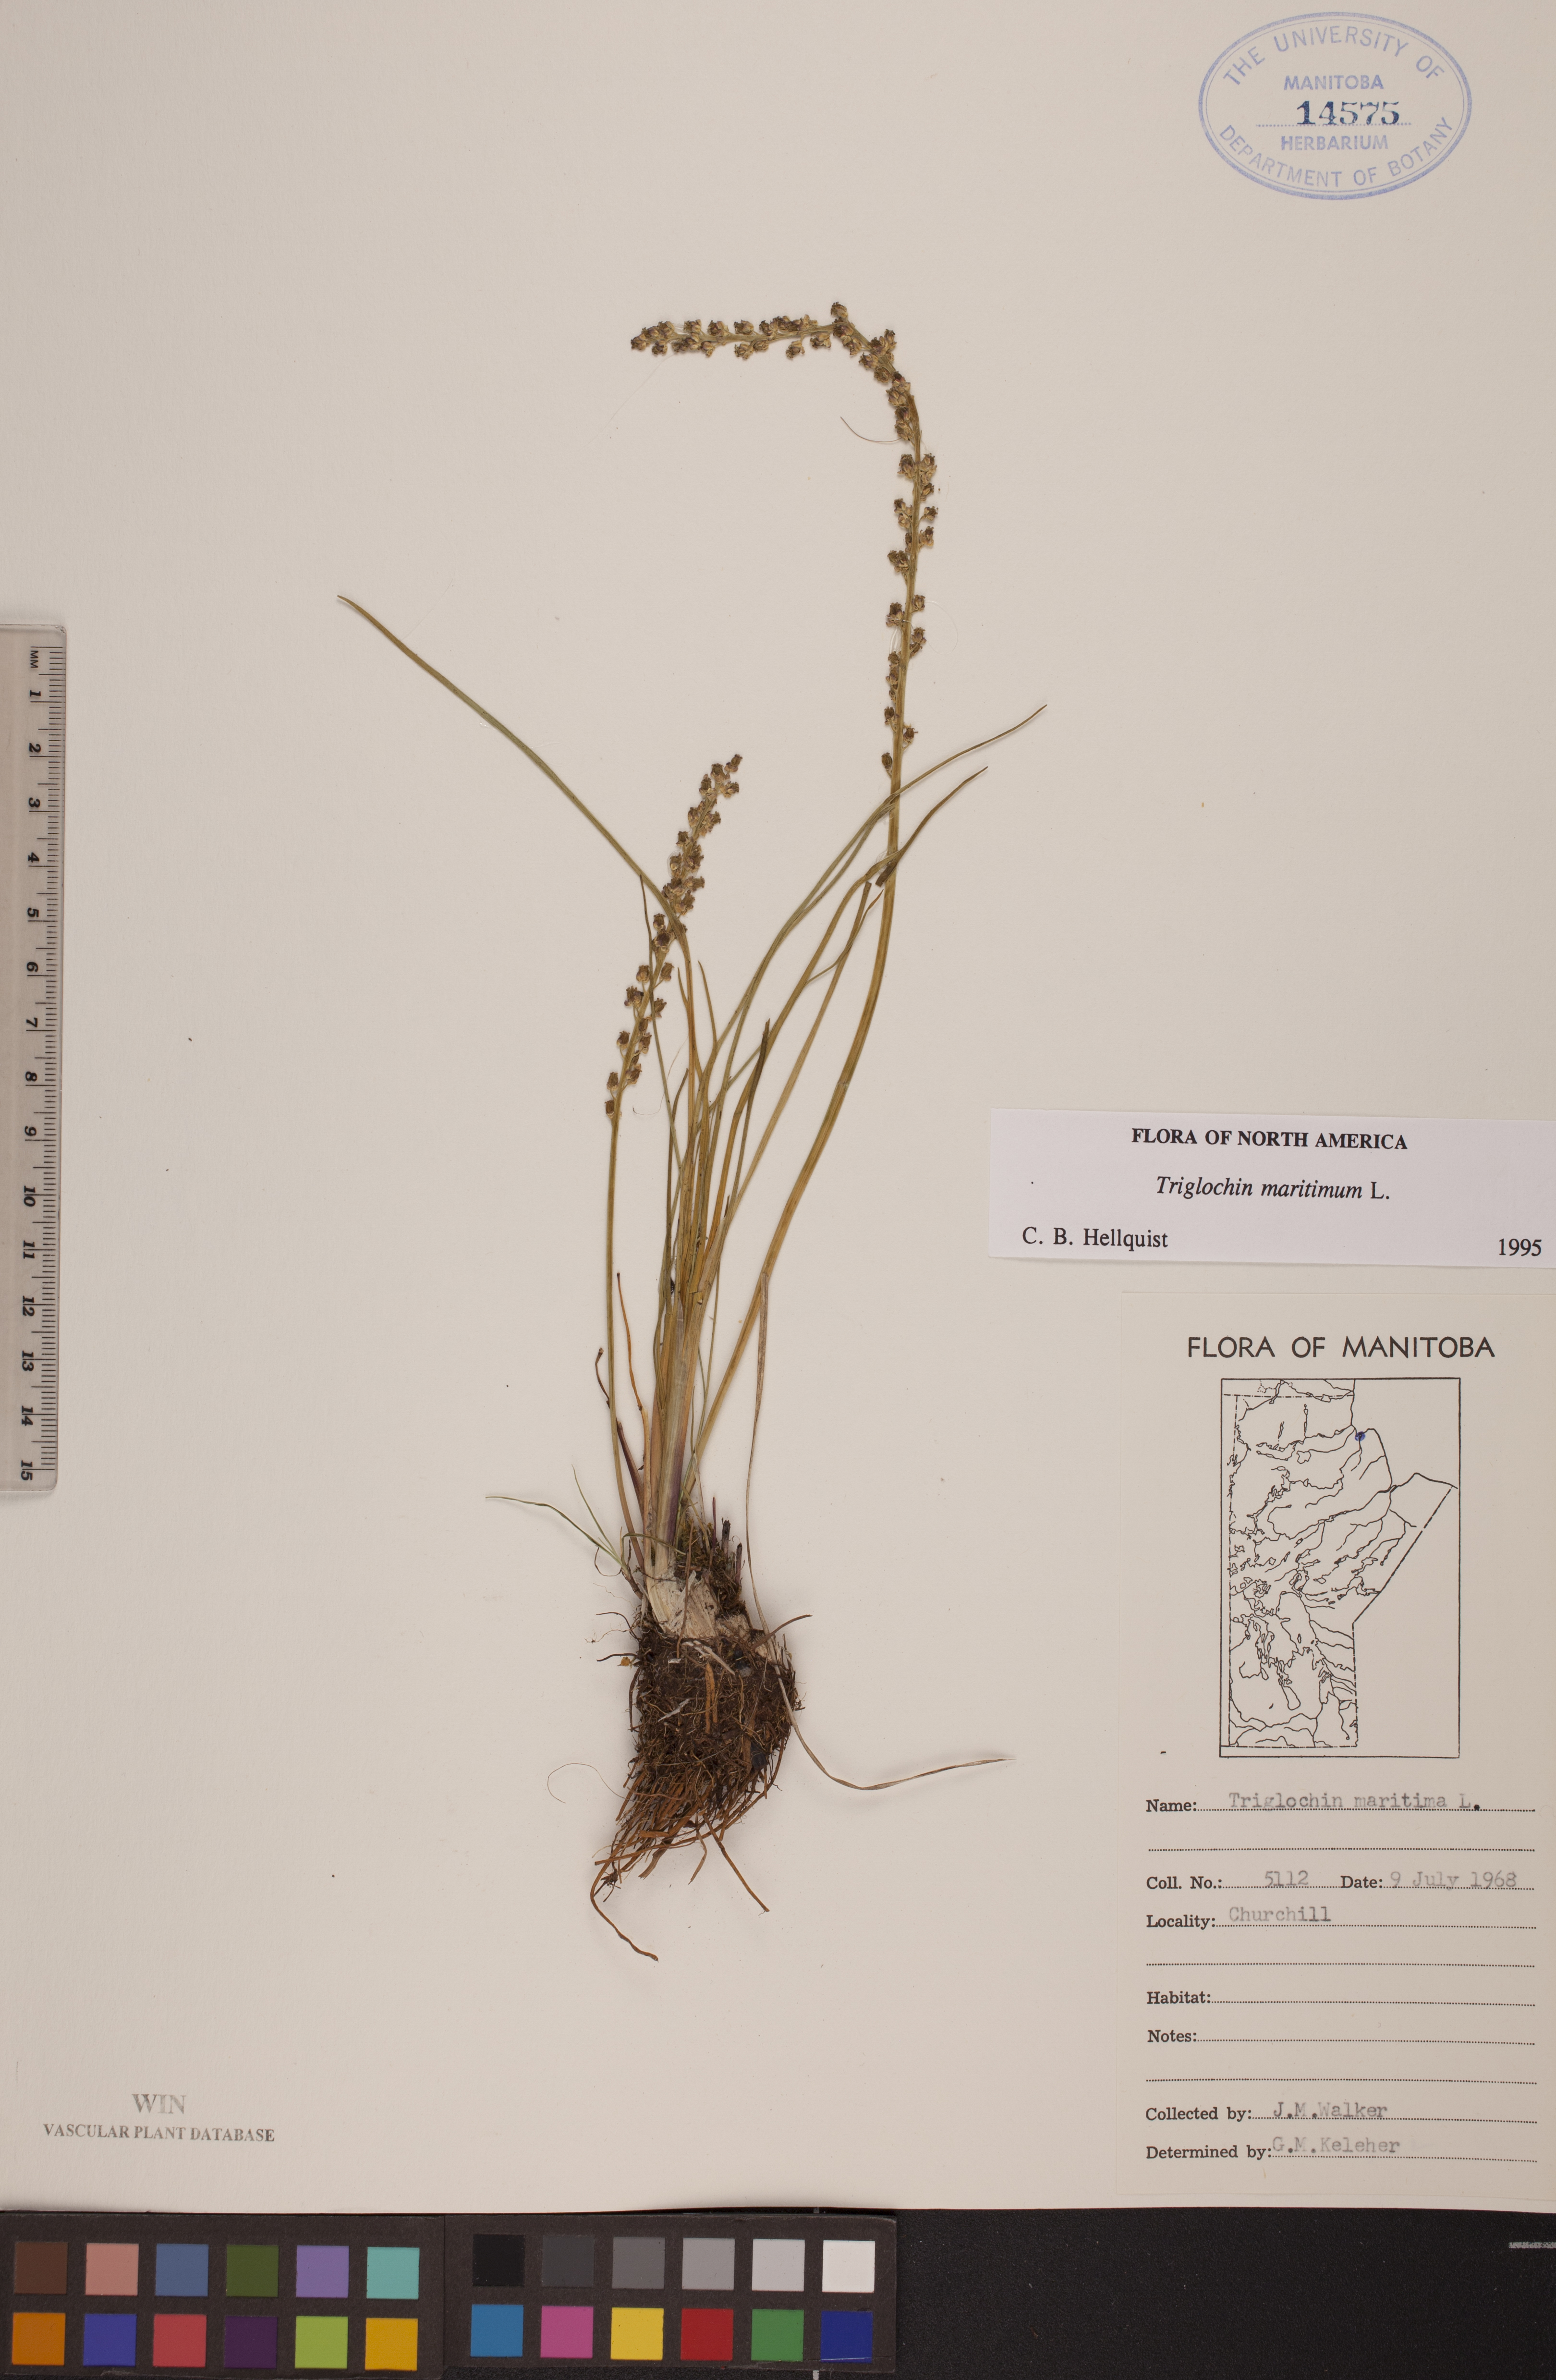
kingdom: Plantae
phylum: Tracheophyta
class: Liliopsida
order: Alismatales
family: Juncaginaceae
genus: Triglochin
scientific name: Triglochin maritima
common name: Sea arrowgrass
